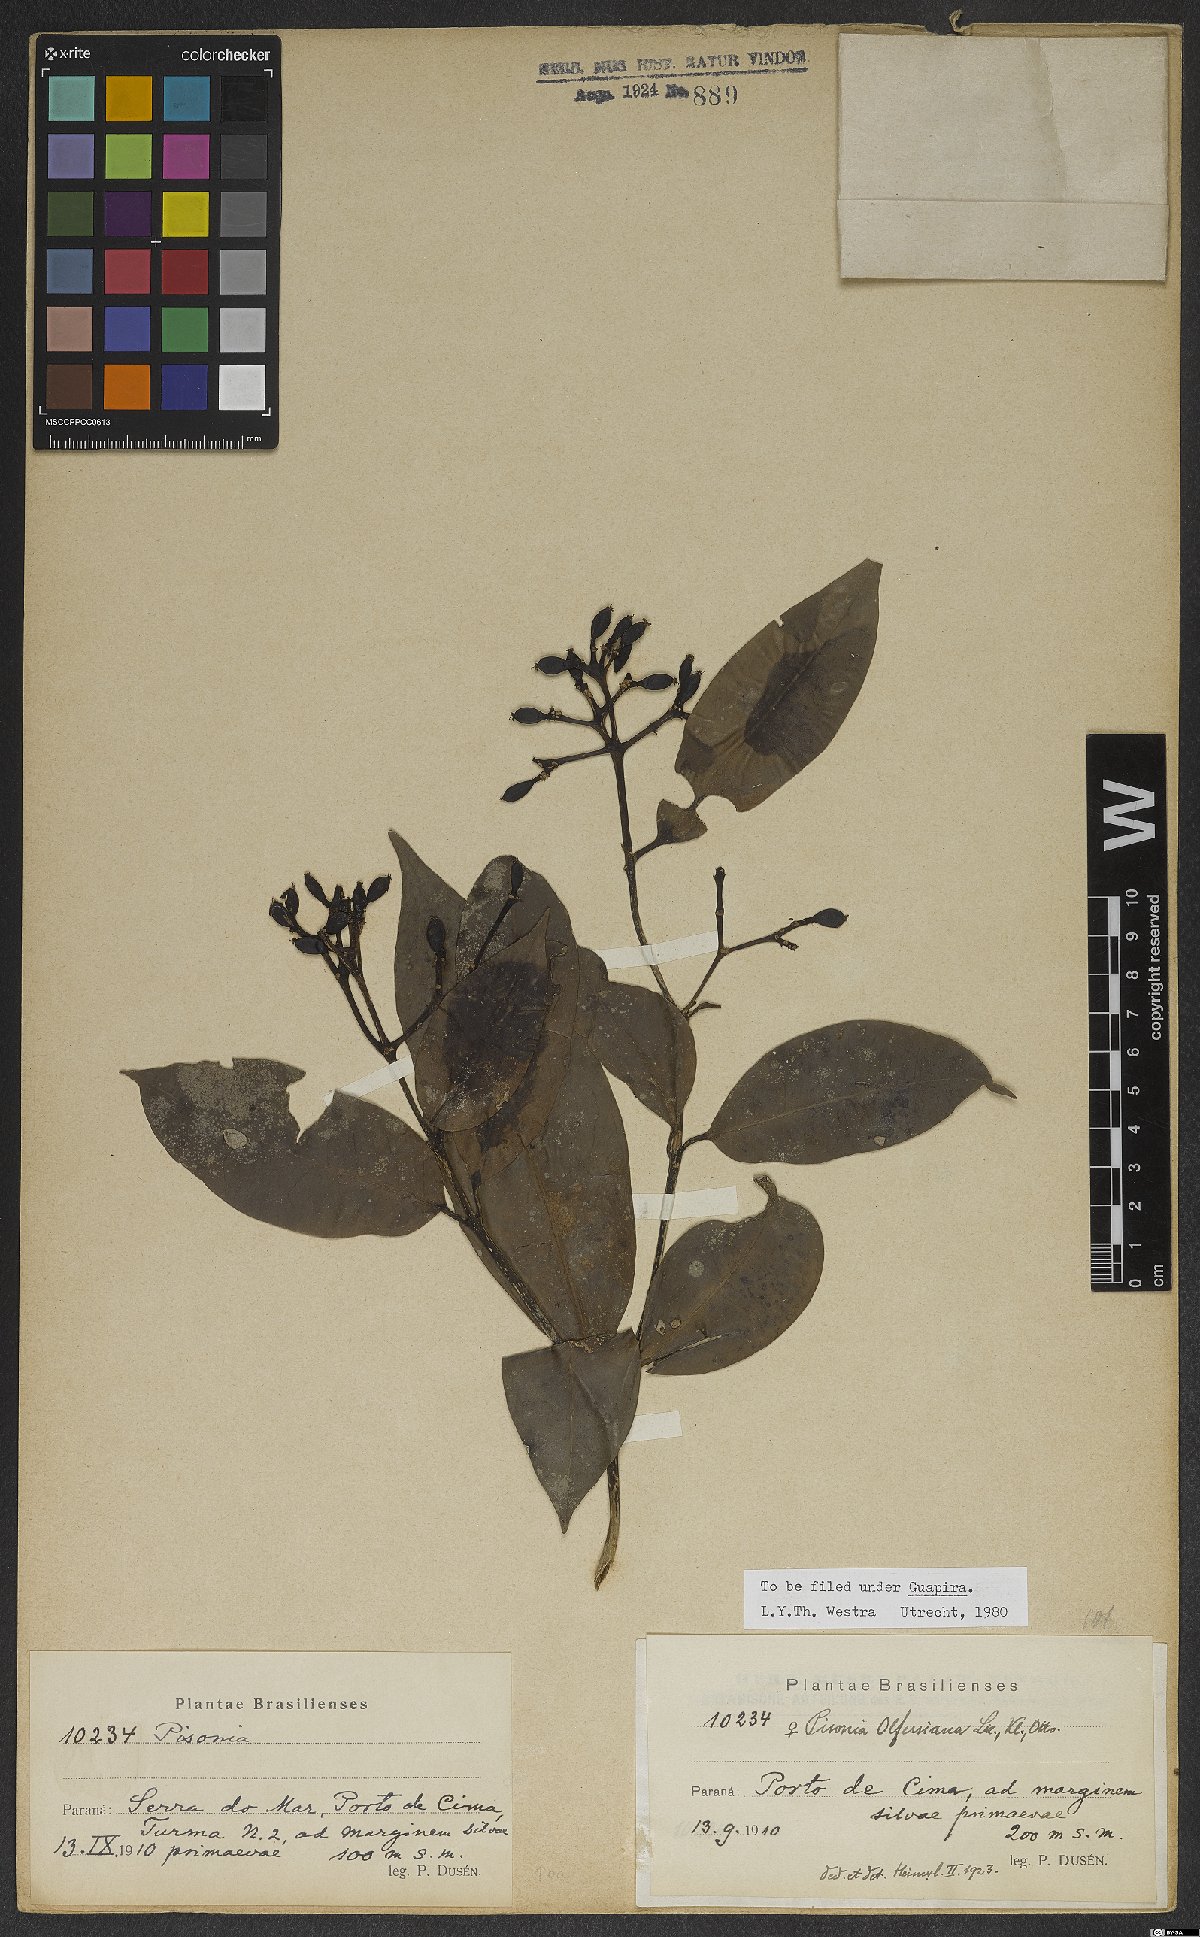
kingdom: Plantae
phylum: Tracheophyta
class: Magnoliopsida
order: Caryophyllales
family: Nyctaginaceae
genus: Guapira
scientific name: Guapira opposita
